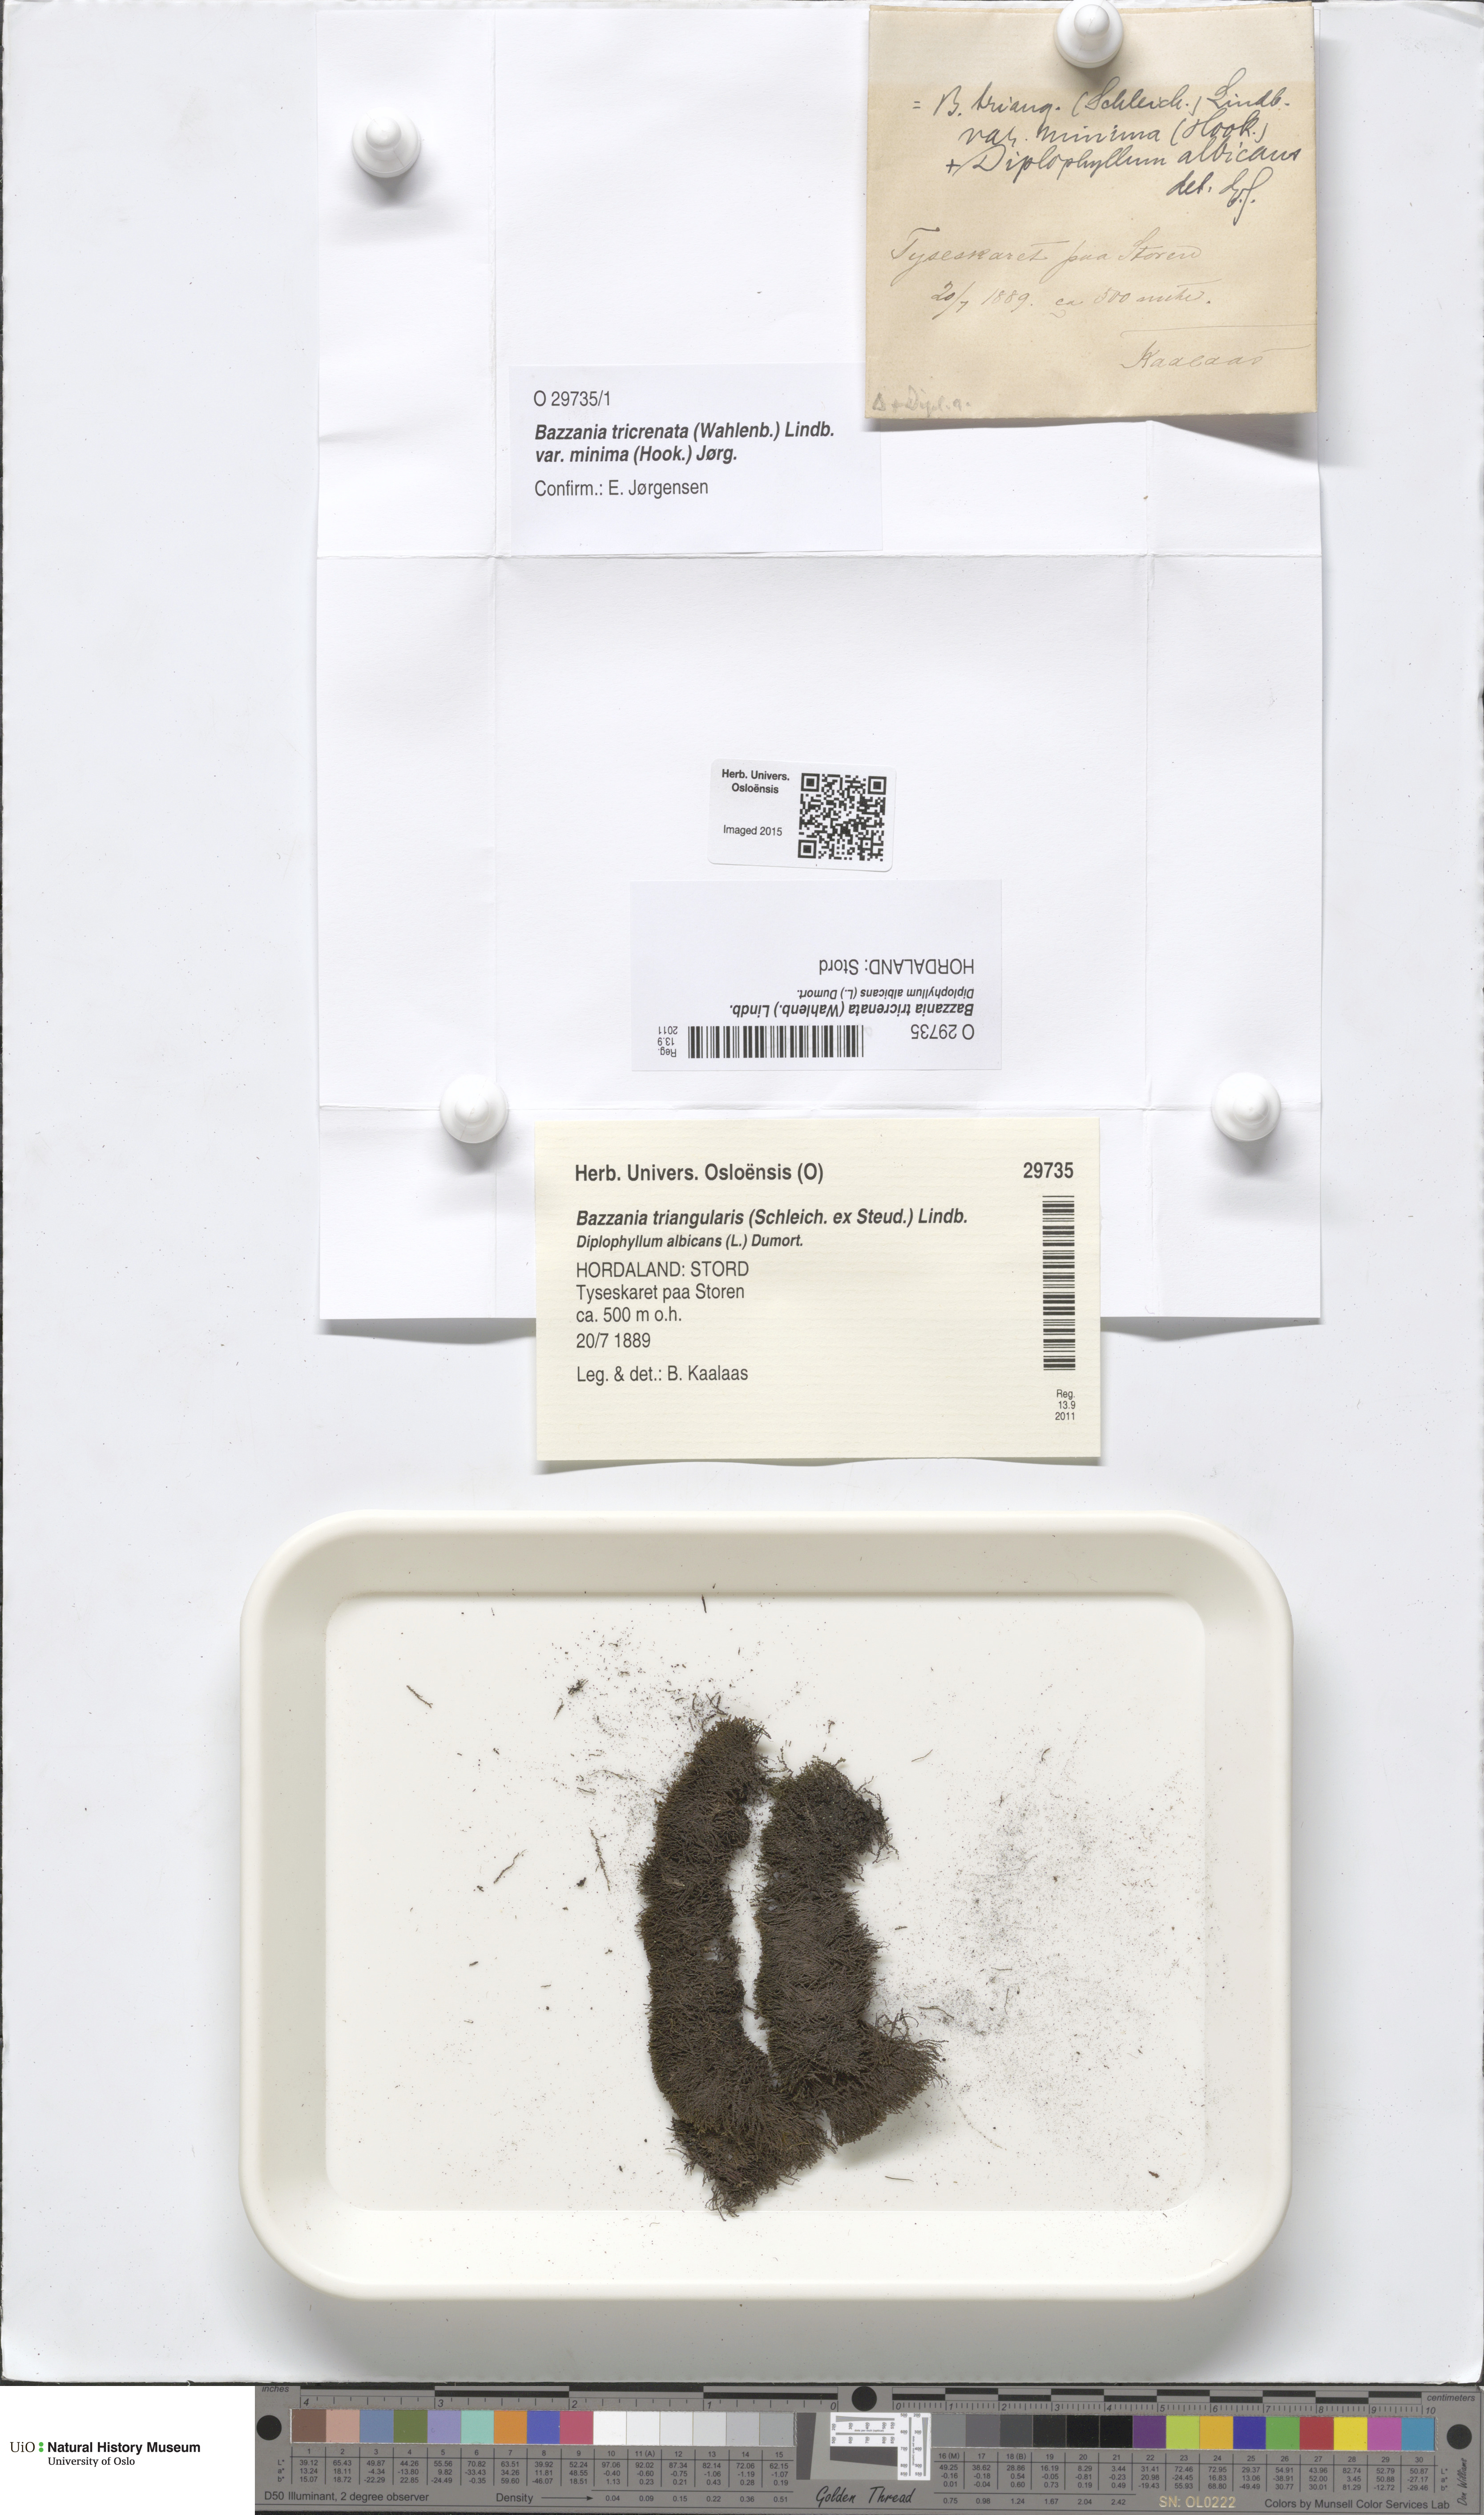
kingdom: Plantae
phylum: Marchantiophyta
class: Jungermanniopsida
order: Jungermanniales
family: Lepidoziaceae
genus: Bazzania
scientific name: Bazzania tricrenata
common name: Lesser whipwort
